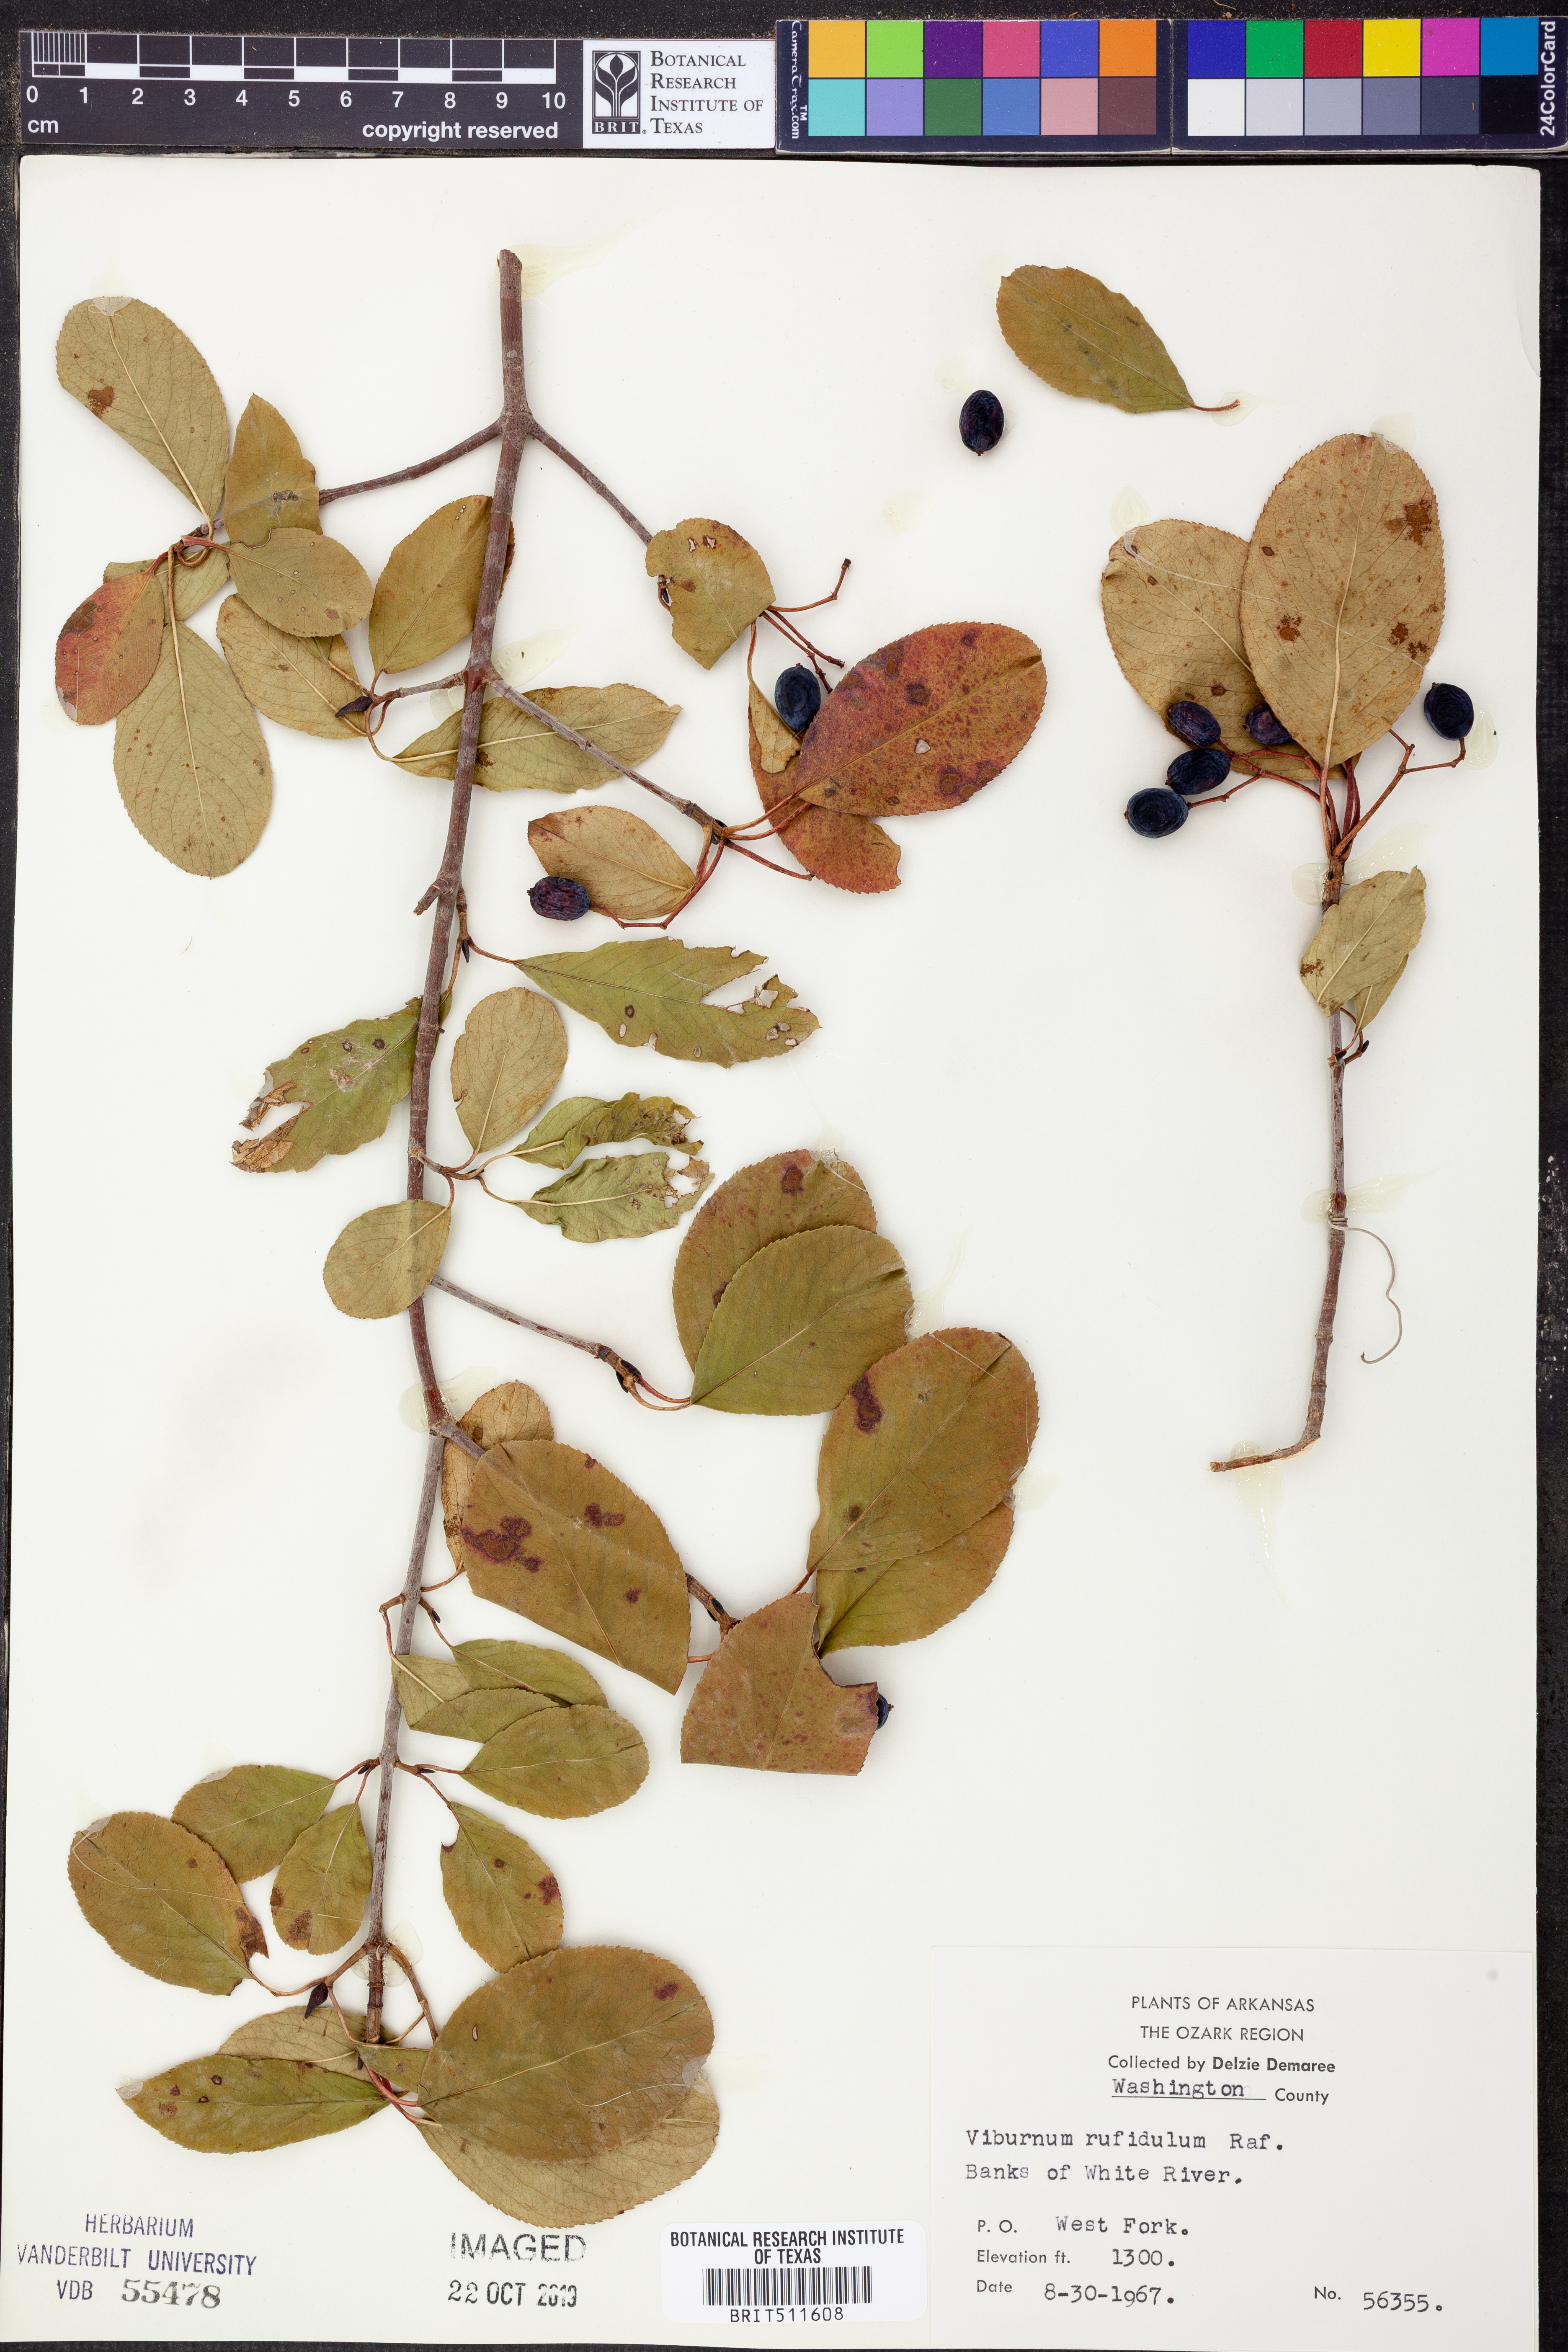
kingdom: Plantae
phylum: Tracheophyta
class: Magnoliopsida
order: Dipsacales
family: Viburnaceae
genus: Viburnum
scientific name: Viburnum rufidulum
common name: Blue haw
